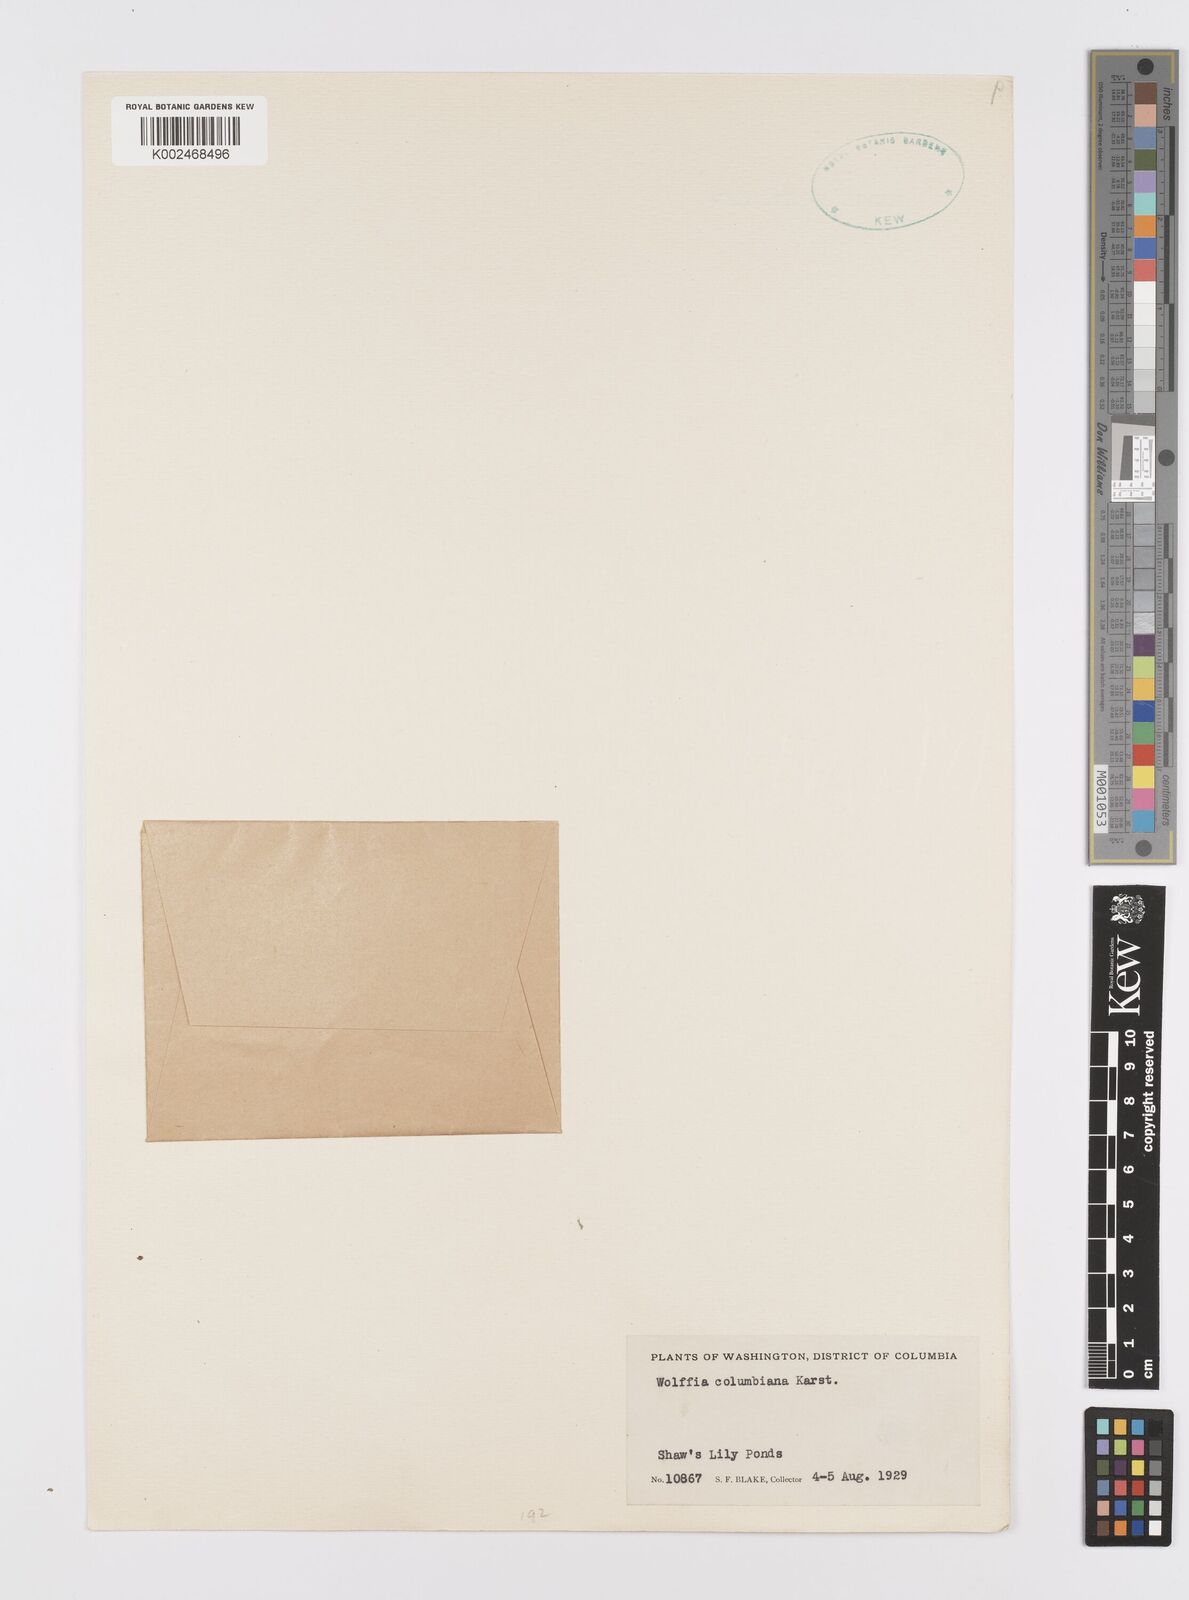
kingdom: Plantae
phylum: Tracheophyta
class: Liliopsida
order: Alismatales
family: Araceae
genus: Wolffia
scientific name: Wolffia columbiana
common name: Columbia watermeal
